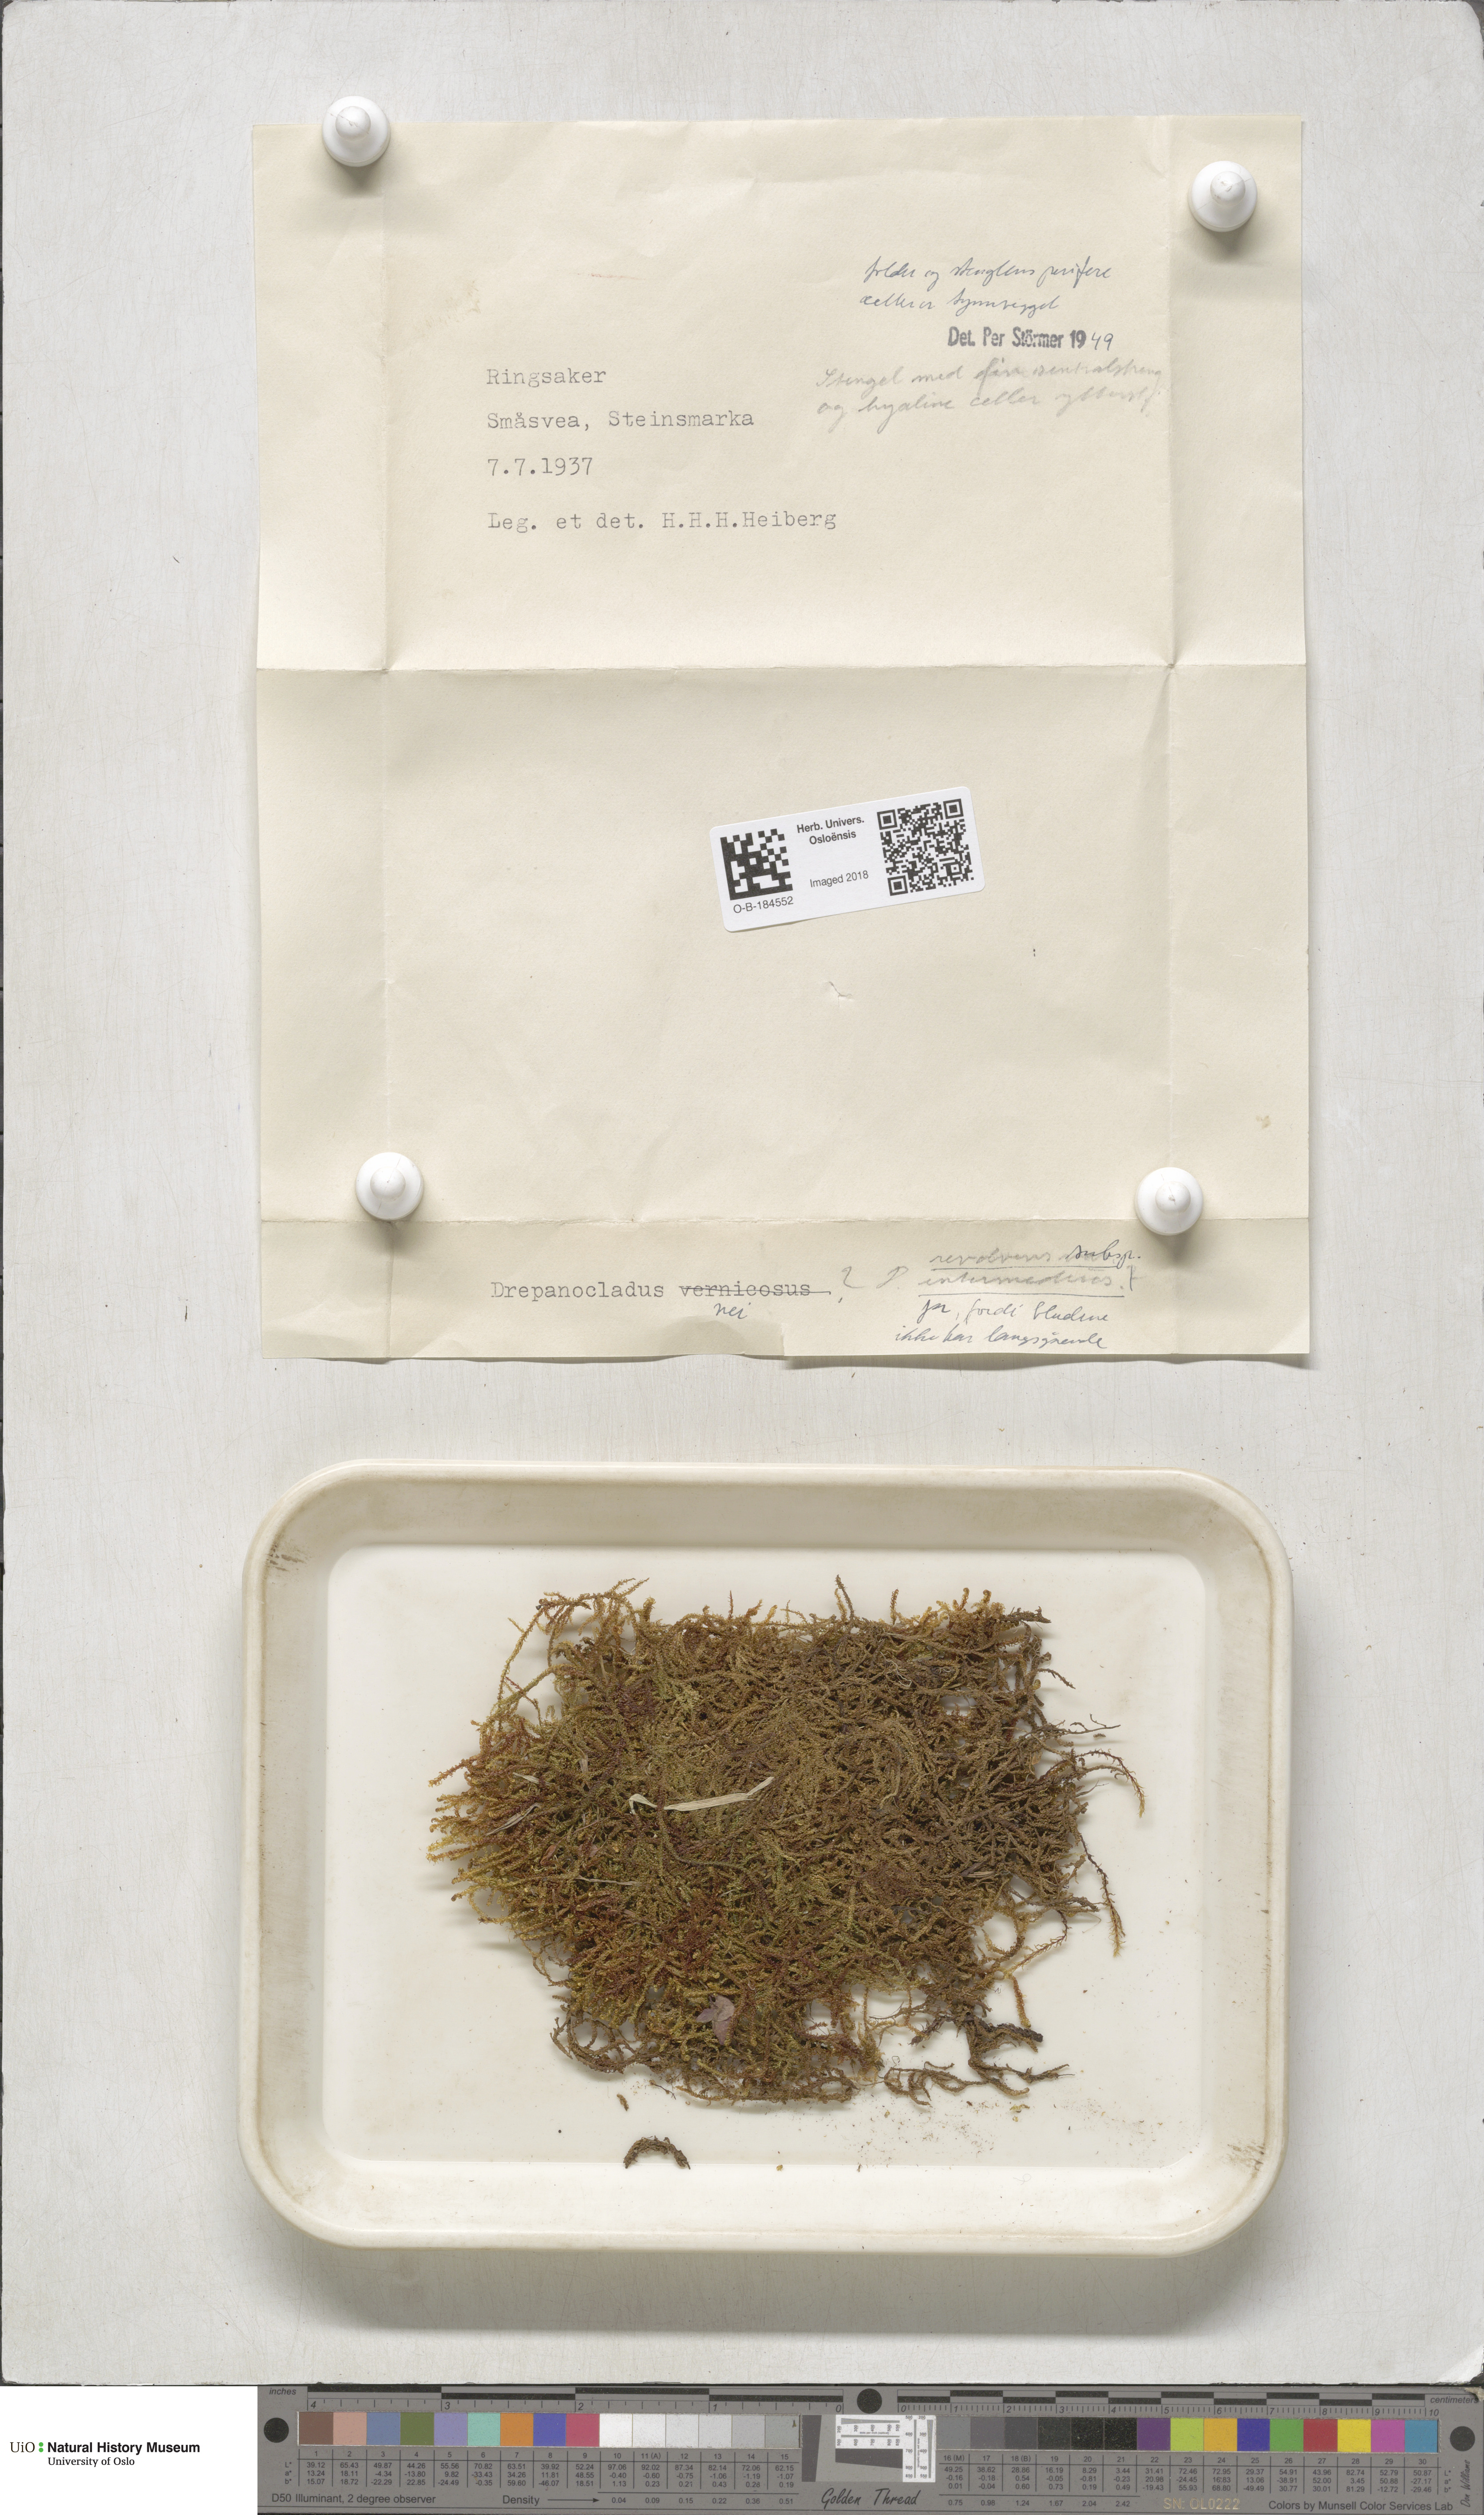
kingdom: Plantae
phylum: Bryophyta
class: Bryopsida
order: Hypnales
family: Scorpidiaceae
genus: Scorpidium
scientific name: Scorpidium cossonii
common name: Cosson's hook moss
